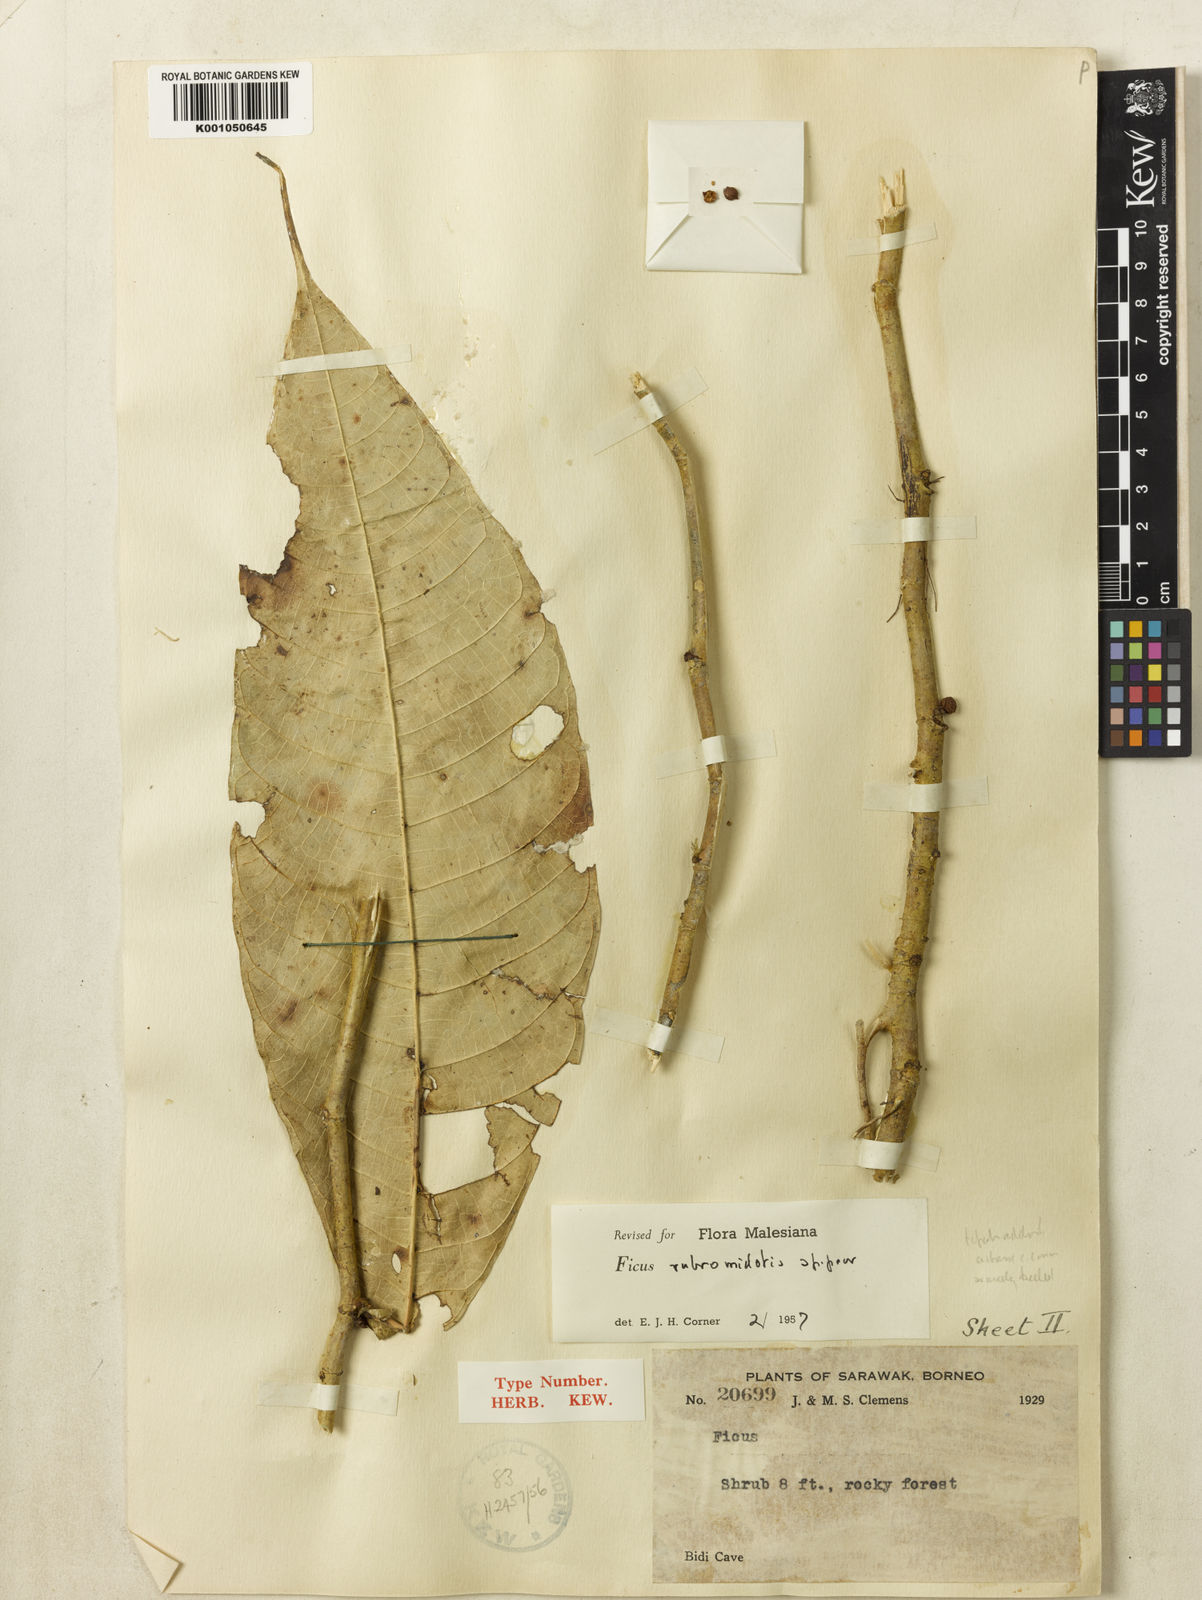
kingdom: Plantae
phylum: Tracheophyta
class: Magnoliopsida
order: Rosales
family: Moraceae
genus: Ficus
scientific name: Ficus rubromidotis
